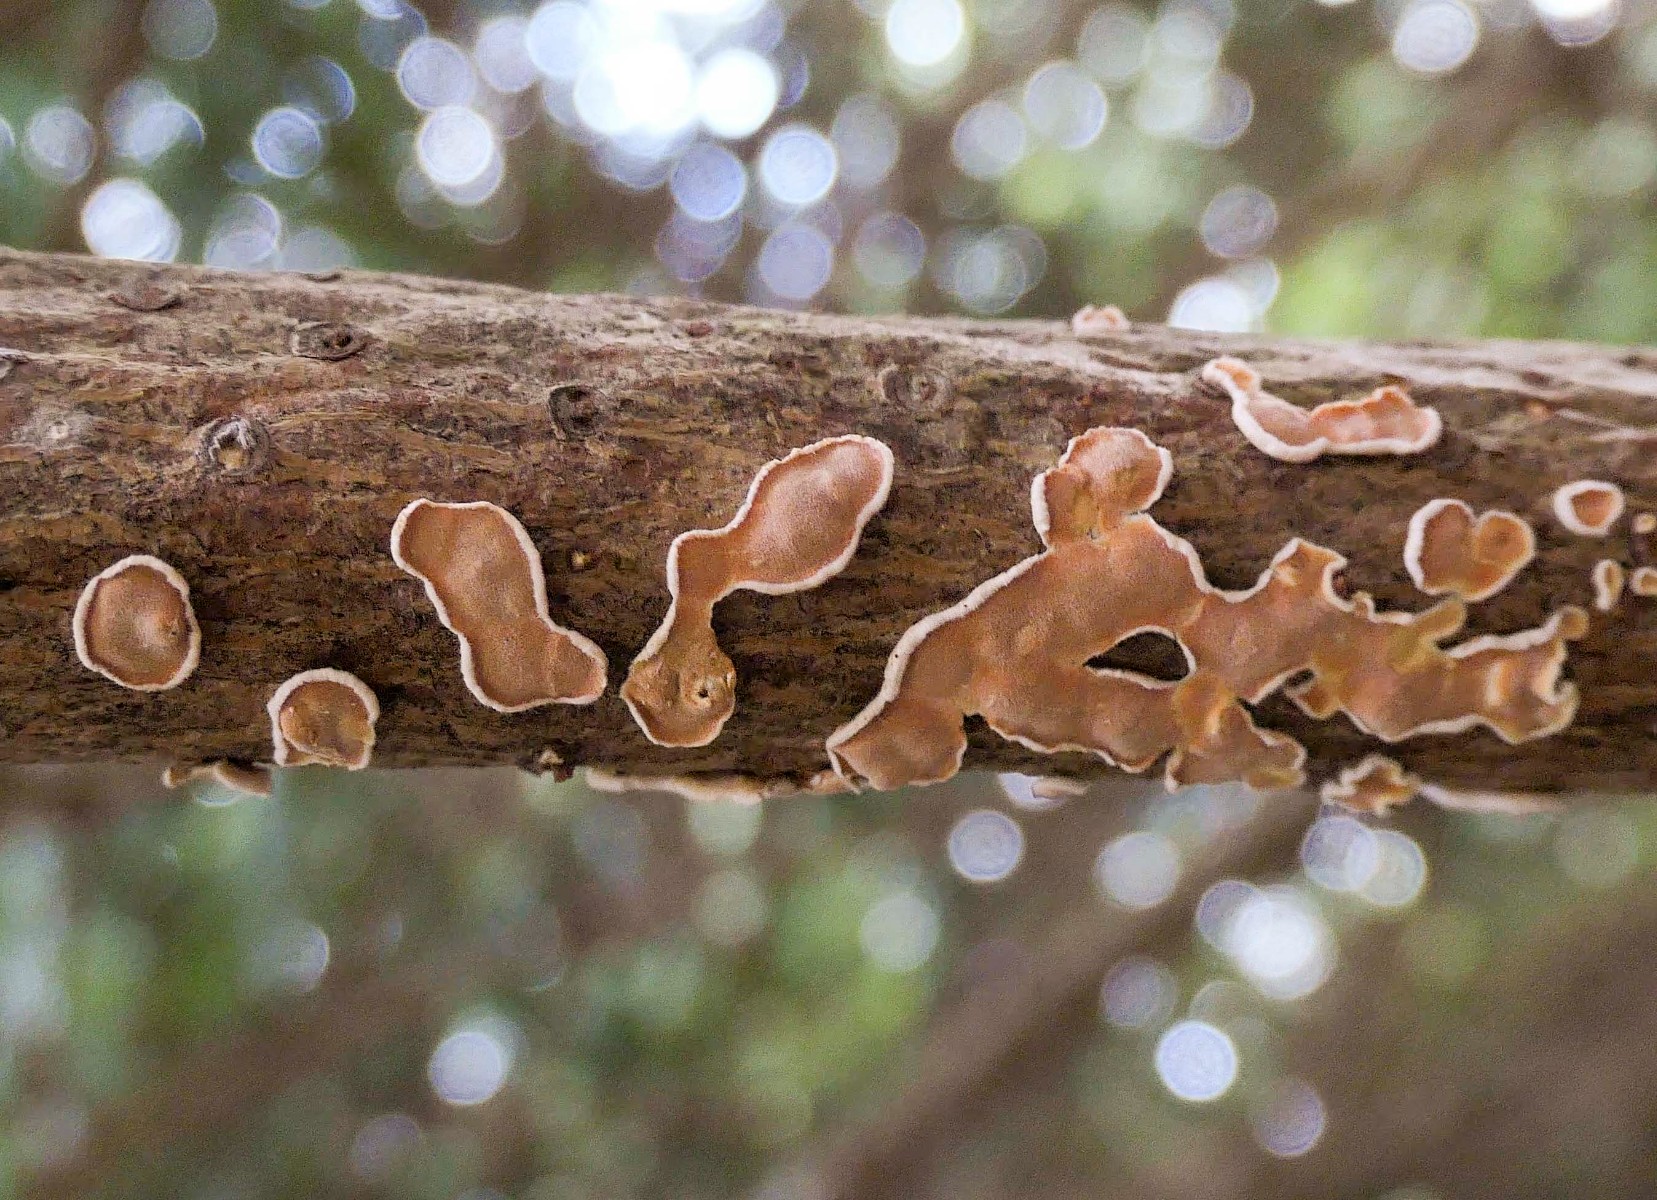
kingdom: Fungi
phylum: Basidiomycota
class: Agaricomycetes
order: Russulales
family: Stereaceae
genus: Aleurodiscus
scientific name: Aleurodiscus amorphus
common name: orange skiveskorpe
